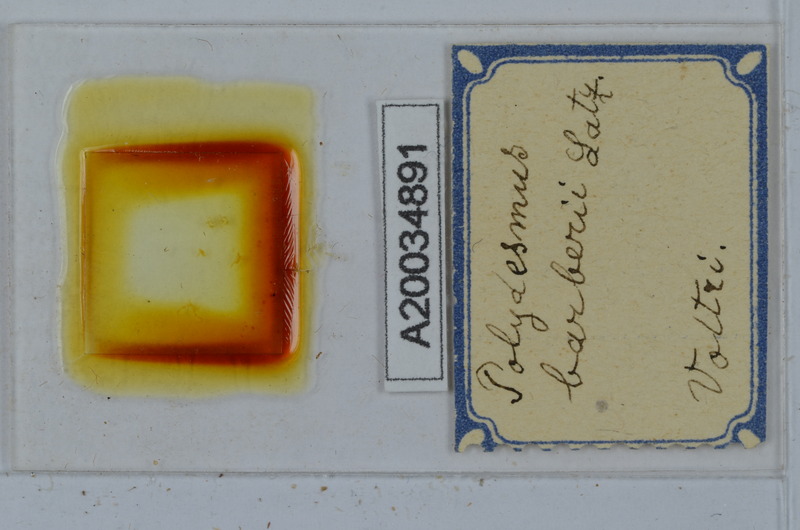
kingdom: Animalia
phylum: Arthropoda
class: Diplopoda
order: Polydesmida
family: Polydesmidae
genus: Polydesmus
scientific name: Polydesmus barberii
